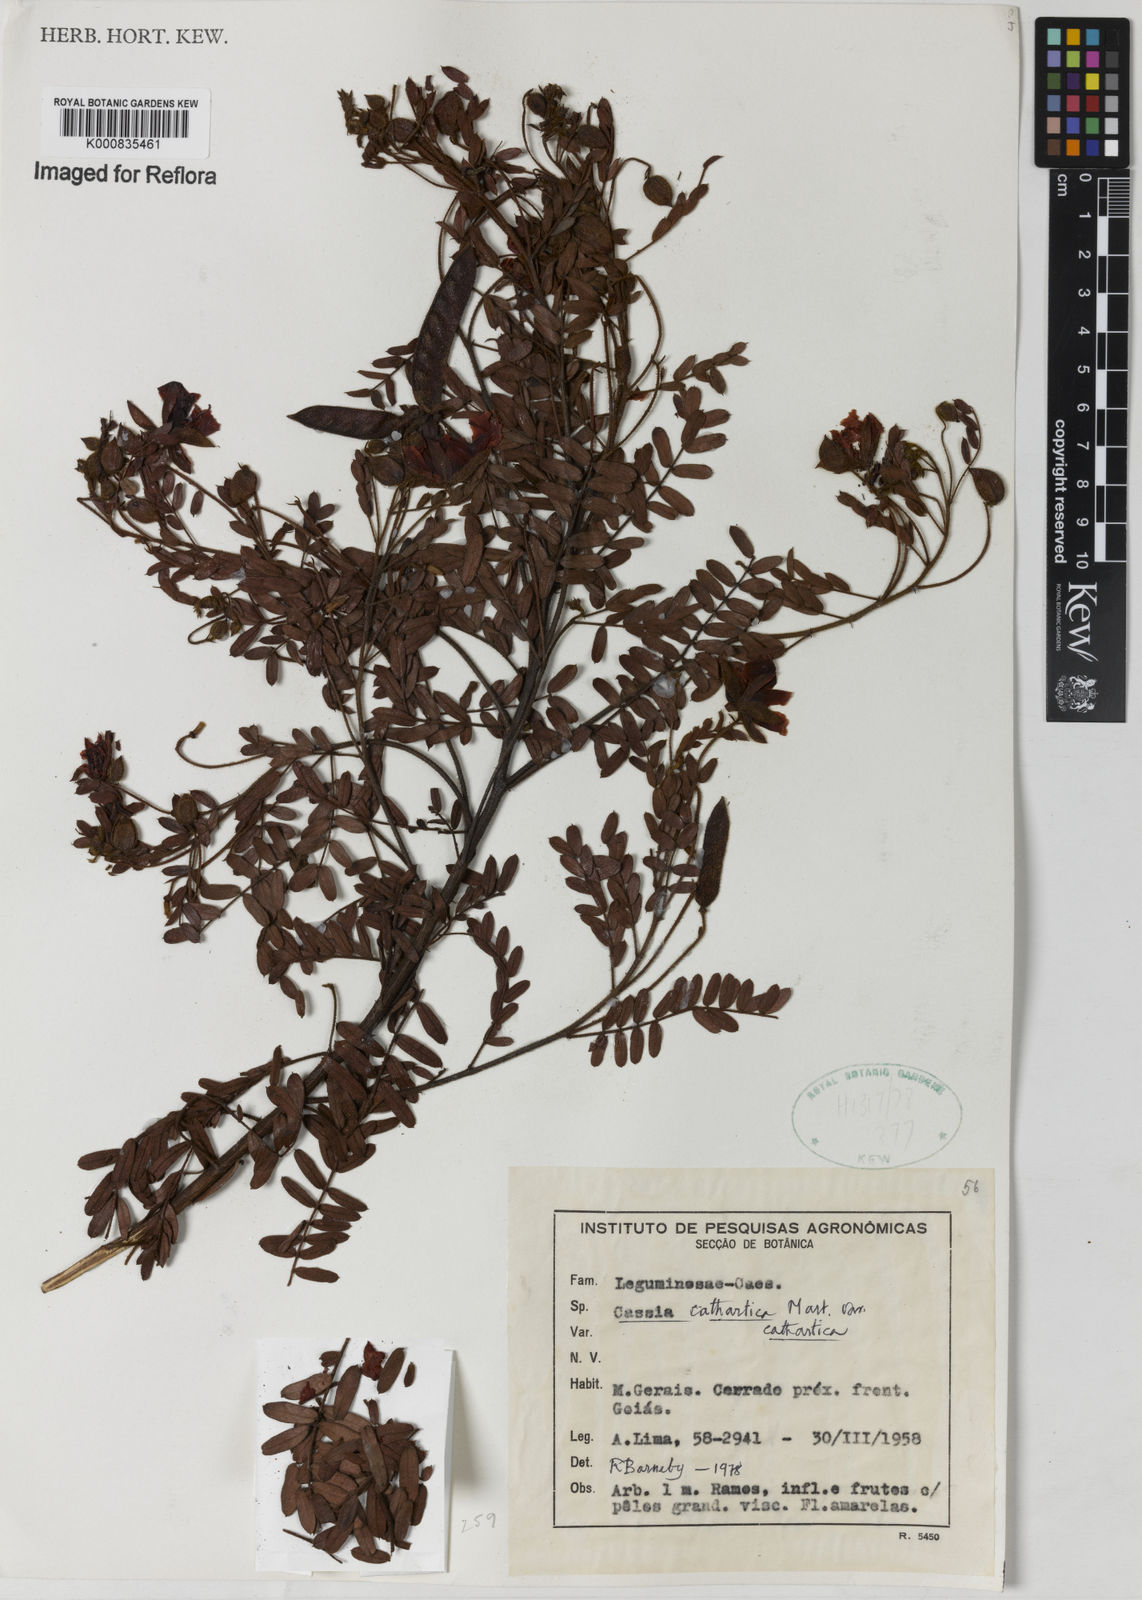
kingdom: Plantae
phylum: Tracheophyta
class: Magnoliopsida
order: Fabales
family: Fabaceae
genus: Chamaecrista
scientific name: Chamaecrista cathartica
